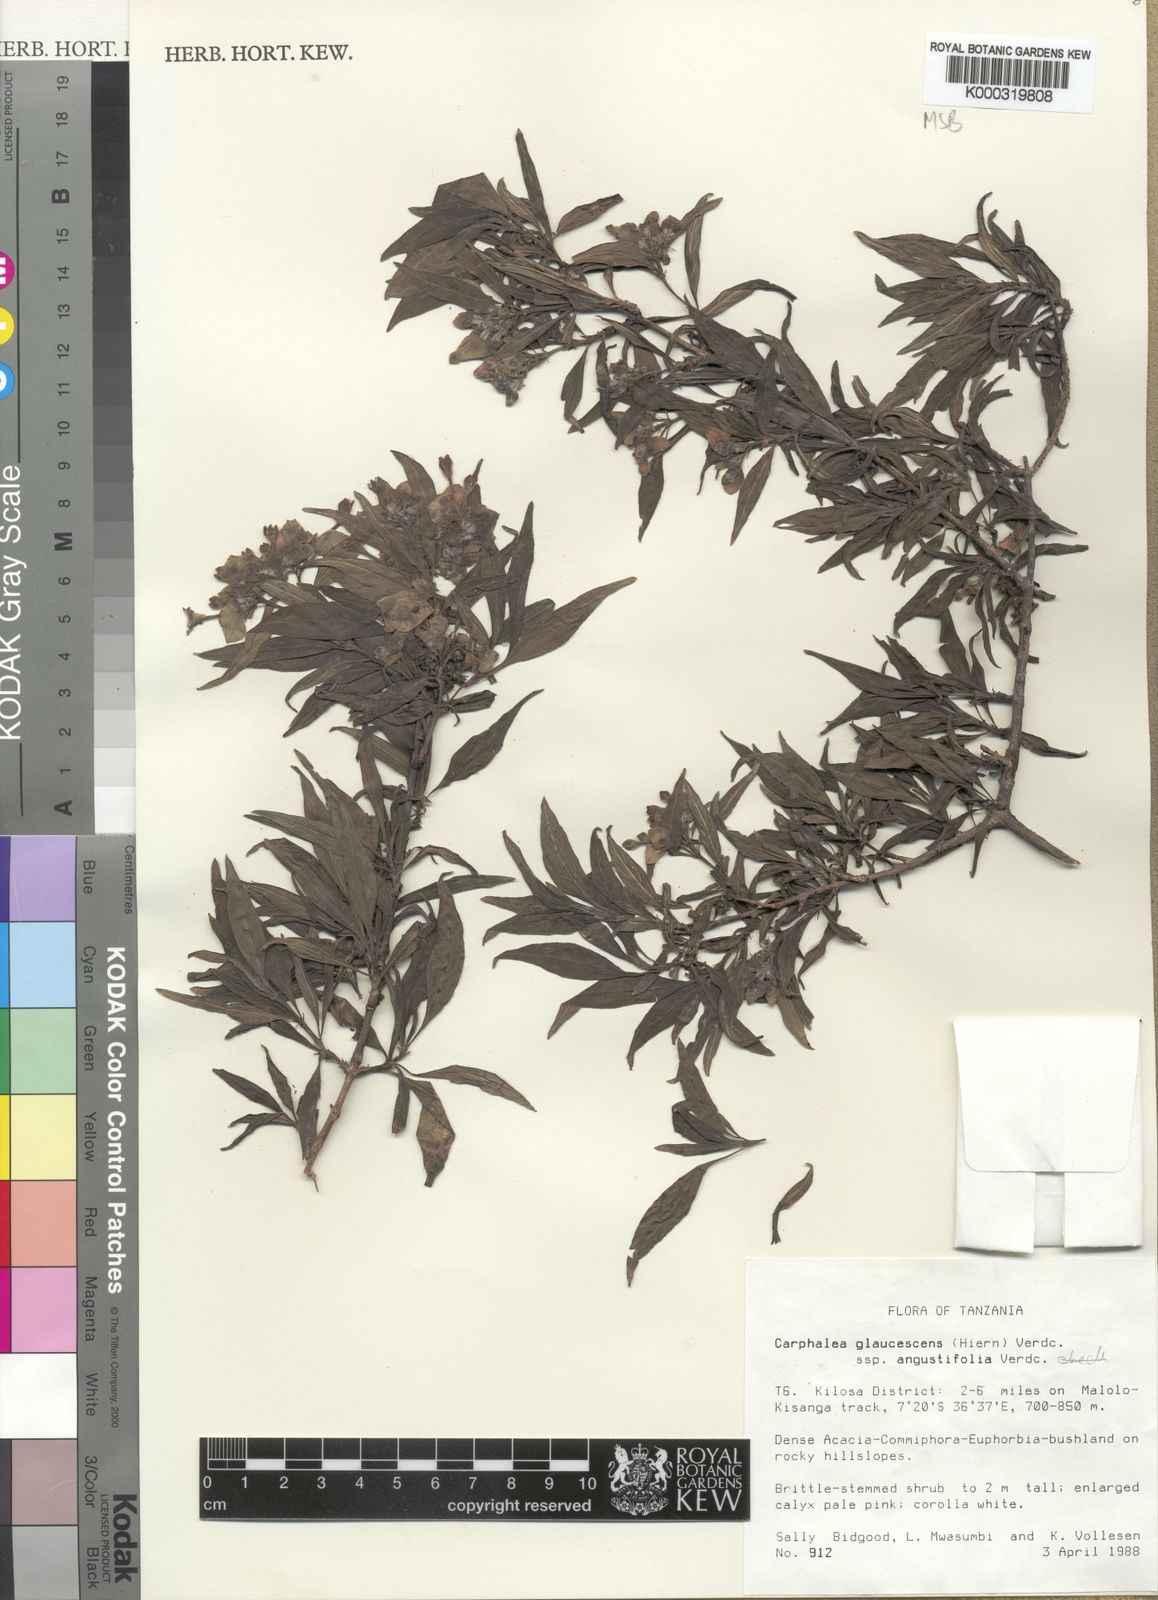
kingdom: Plantae
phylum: Tracheophyta
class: Magnoliopsida
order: Gentianales
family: Rubiaceae
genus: Dirichletia
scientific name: Dirichletia glaucescens
